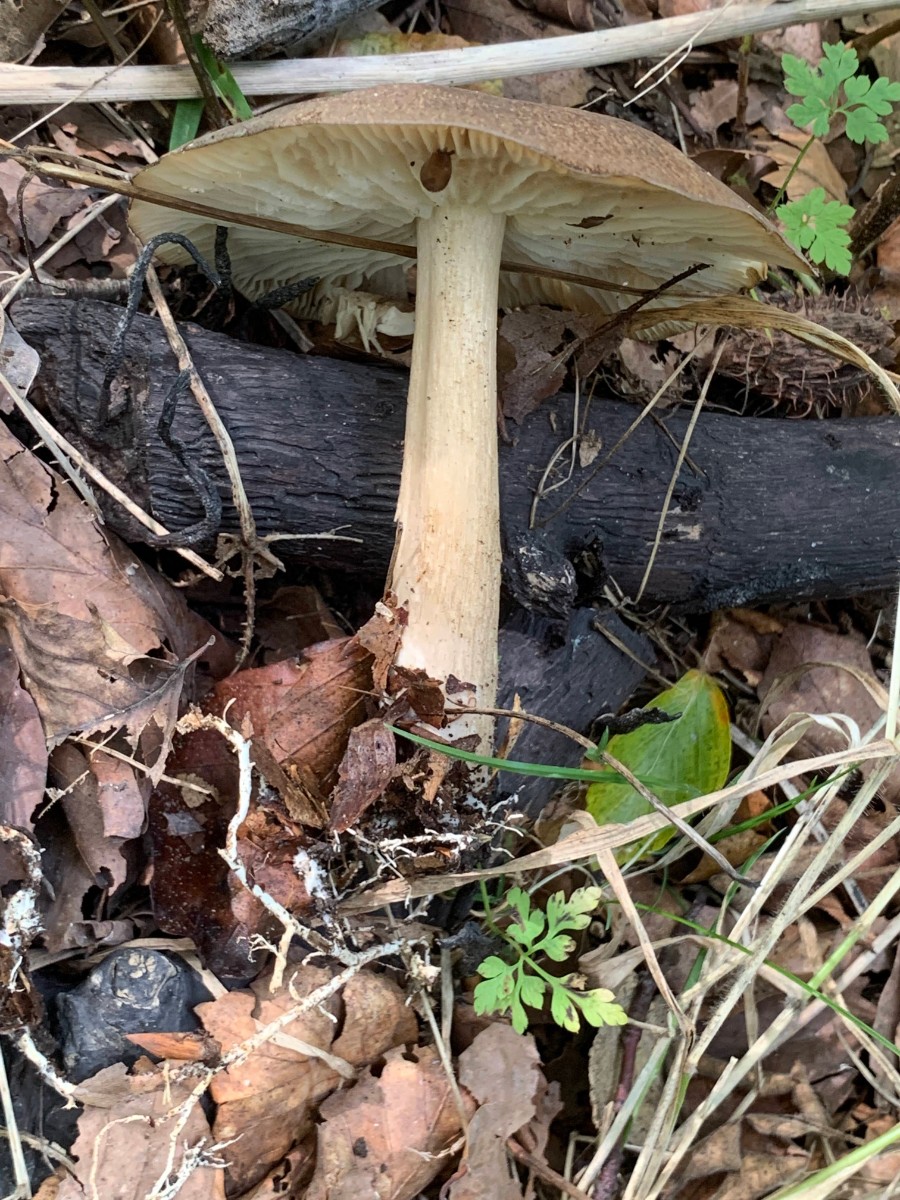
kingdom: Fungi
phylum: Basidiomycota
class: Agaricomycetes
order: Agaricales
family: Tricholomataceae
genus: Megacollybia
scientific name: Megacollybia platyphylla
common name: bredbladet væbnerhat
